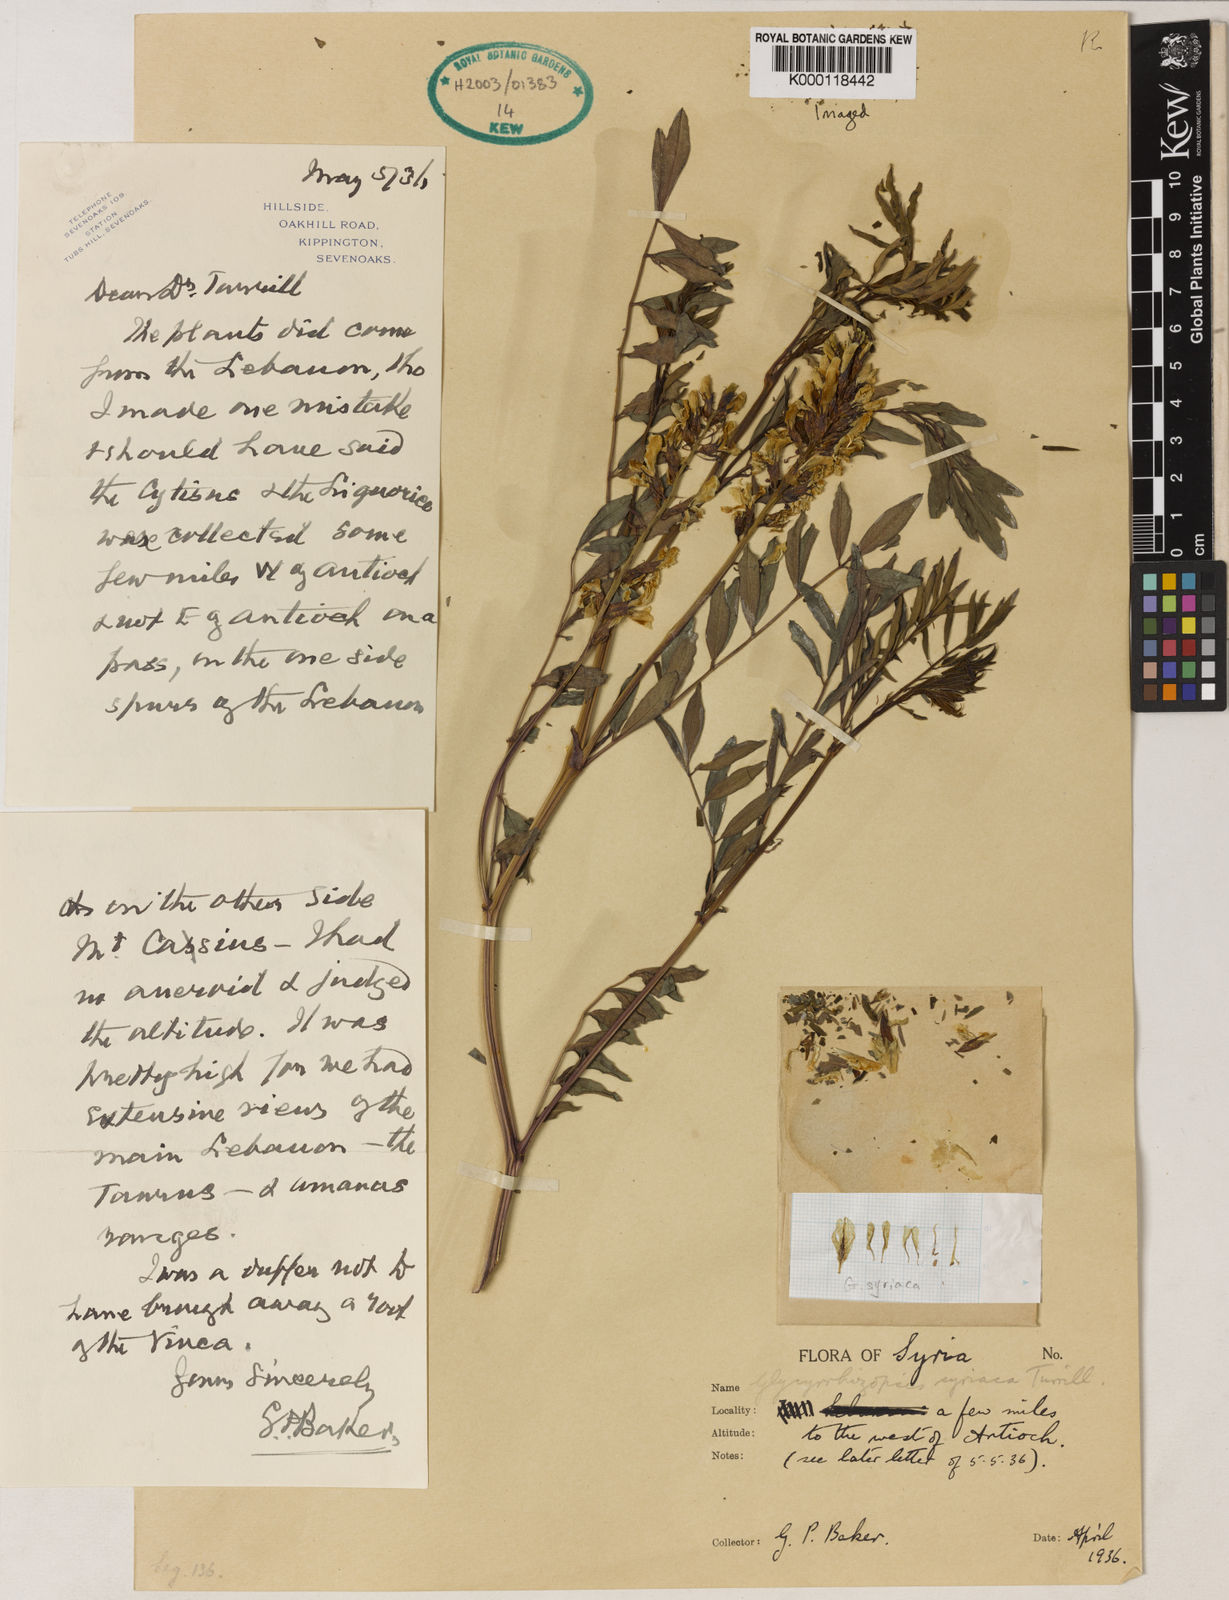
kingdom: Plantae
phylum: Tracheophyta
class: Magnoliopsida
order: Fabales
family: Fabaceae
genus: Glycyrrhiza
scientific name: Glycyrrhiza
